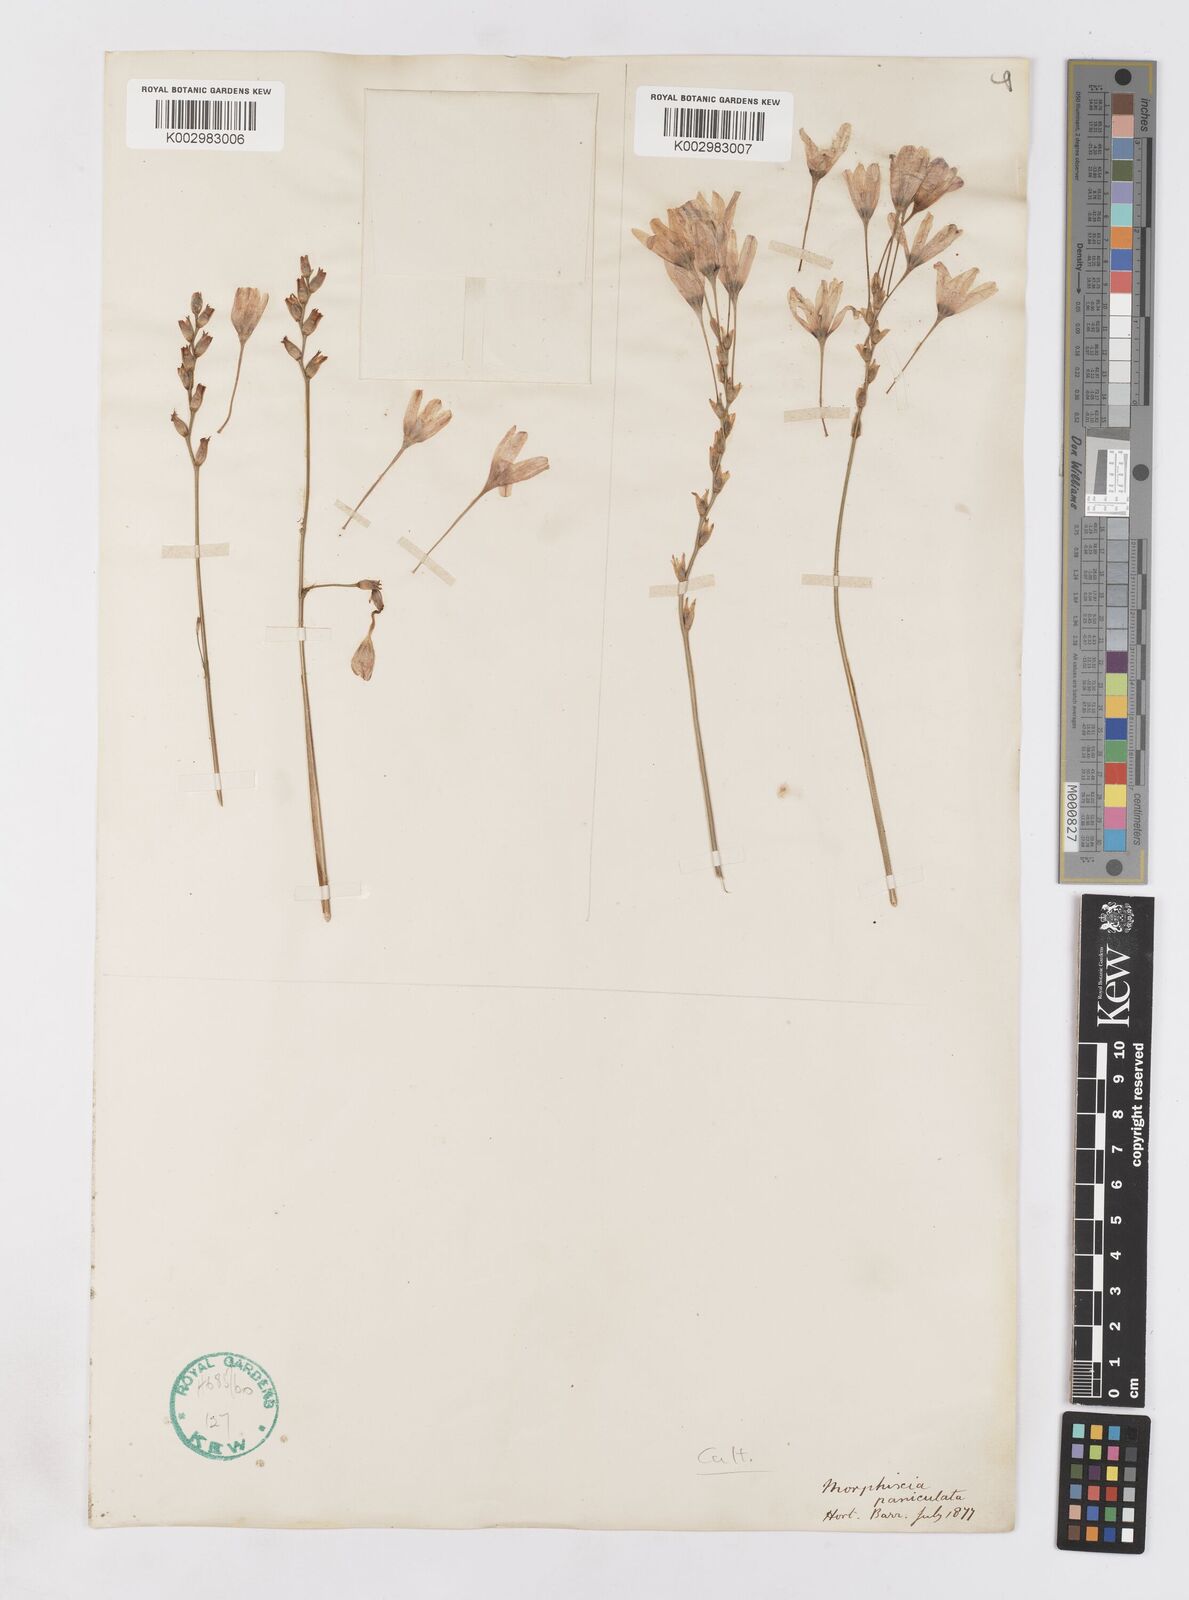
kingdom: Plantae
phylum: Tracheophyta
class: Liliopsida
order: Asparagales
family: Iridaceae
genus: Ixia
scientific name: Ixia paniculata
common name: Tubular corn-lily
